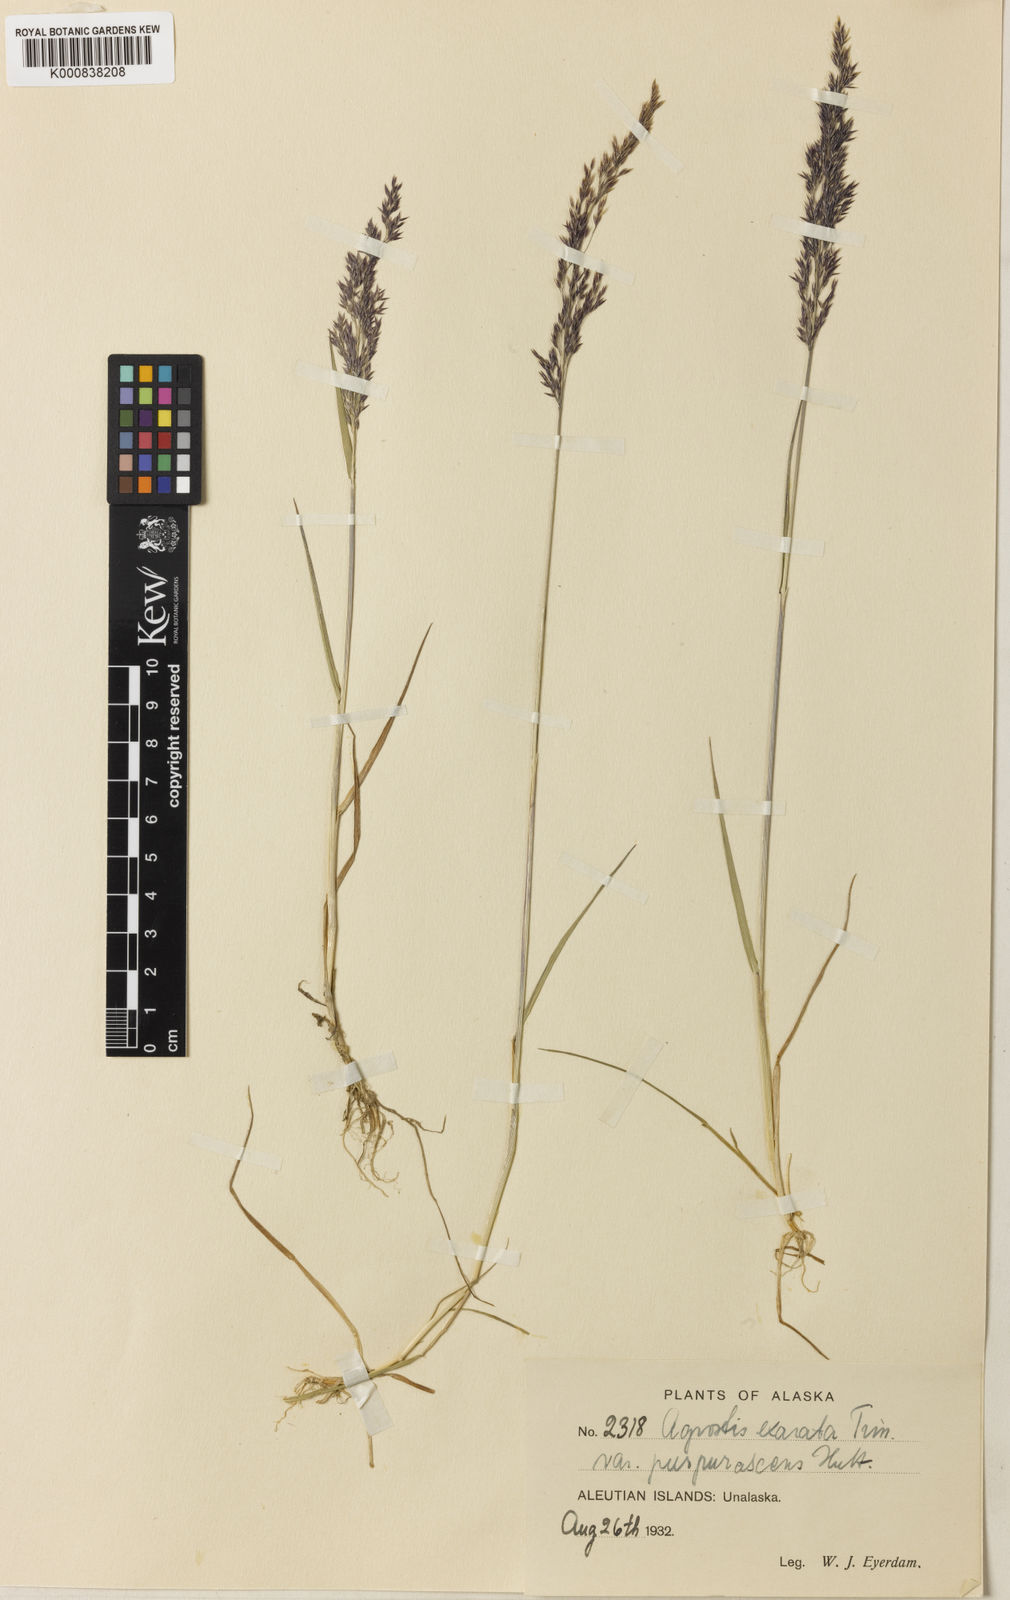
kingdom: Plantae
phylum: Tracheophyta
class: Liliopsida
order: Poales
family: Poaceae
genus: Agrostis
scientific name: Agrostis exarata
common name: Spike bent
